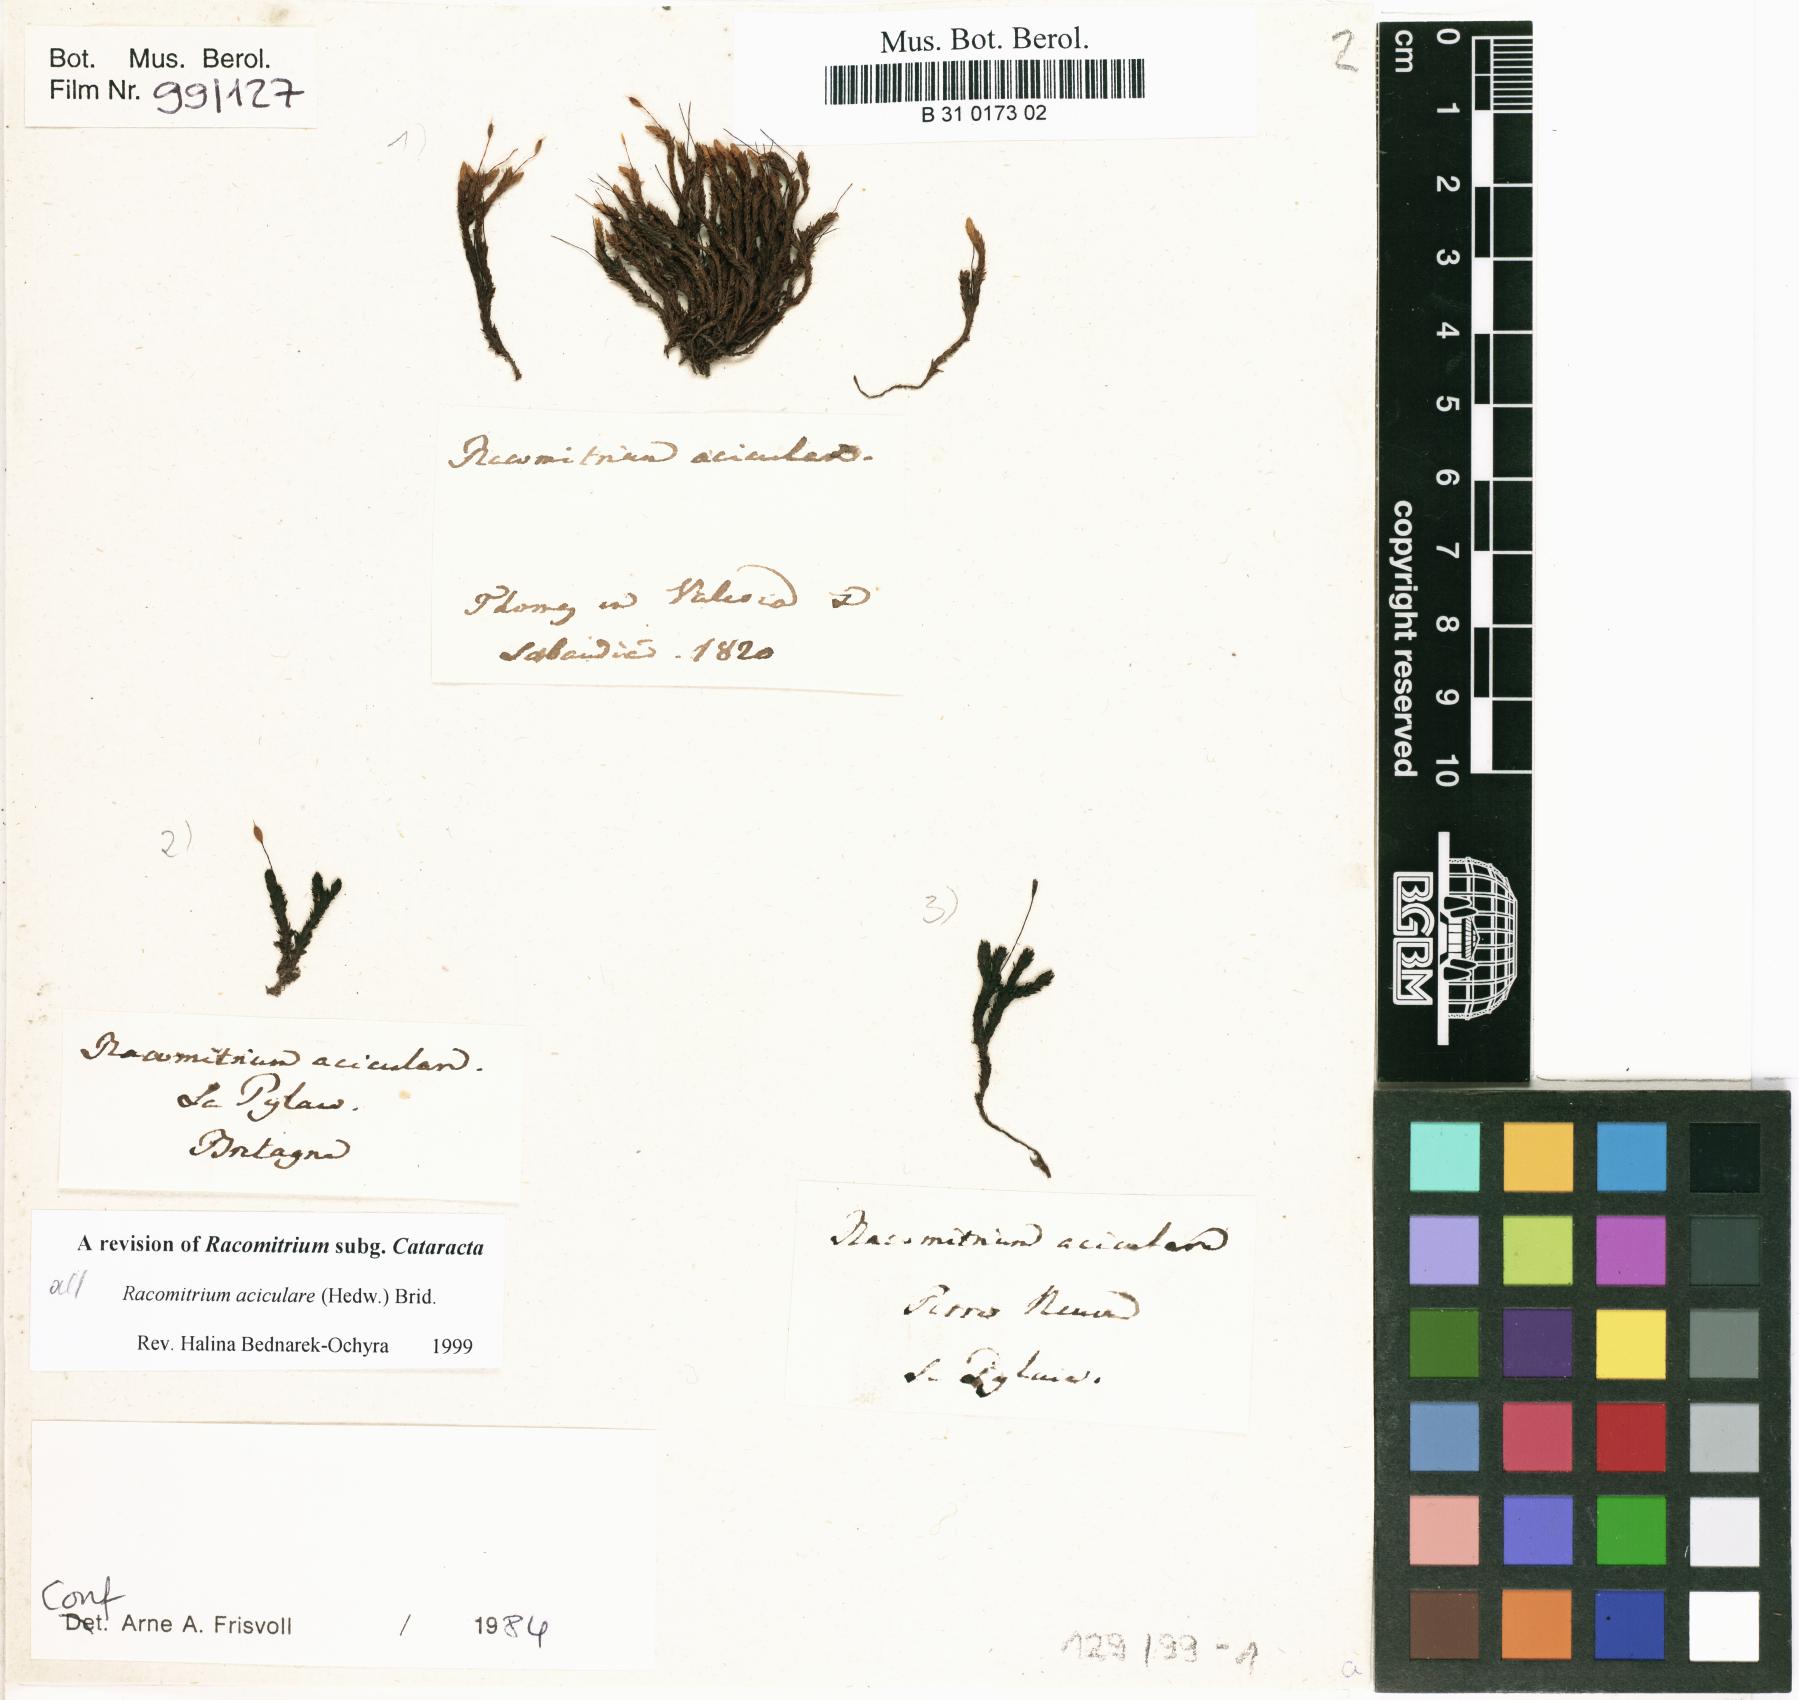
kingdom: Plantae
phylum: Bryophyta
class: Bryopsida
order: Grimmiales
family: Grimmiaceae
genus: Codriophorus
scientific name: Codriophorus acicularis
